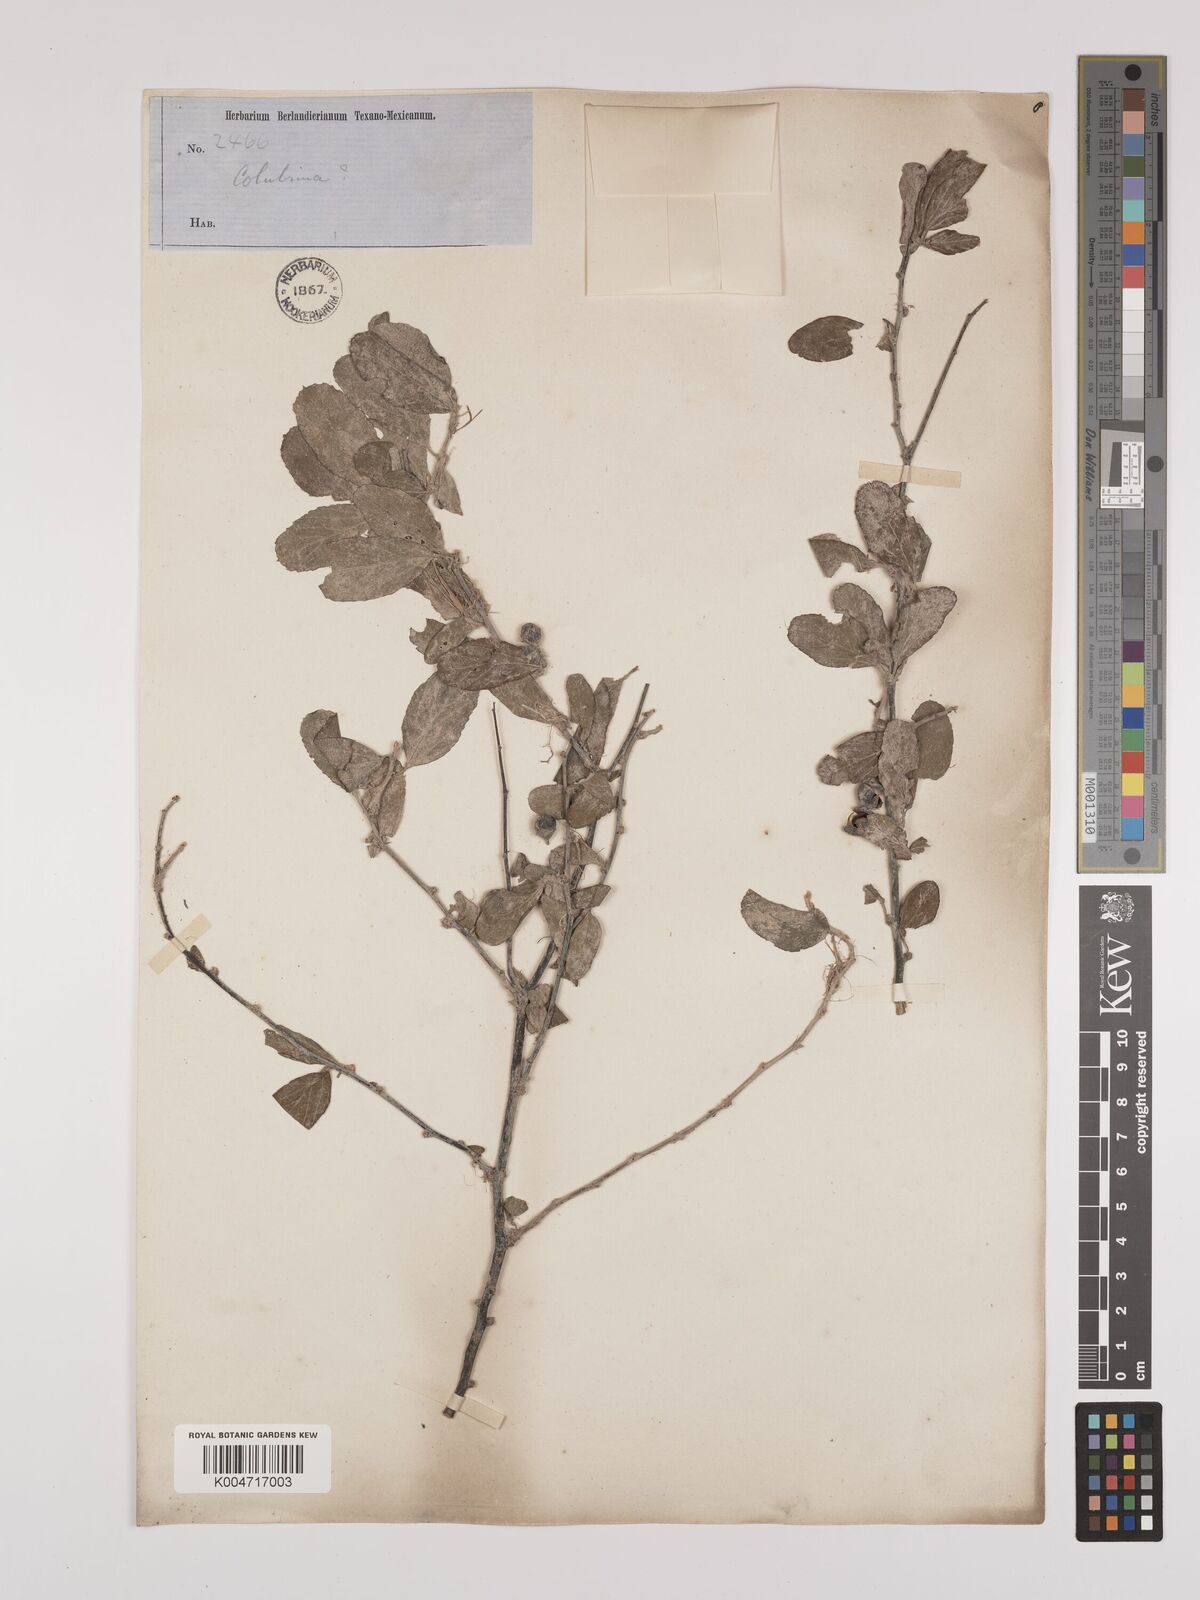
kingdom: Plantae
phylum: Tracheophyta
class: Magnoliopsida
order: Rosales
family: Rhamnaceae
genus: Colubrina
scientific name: Colubrina
